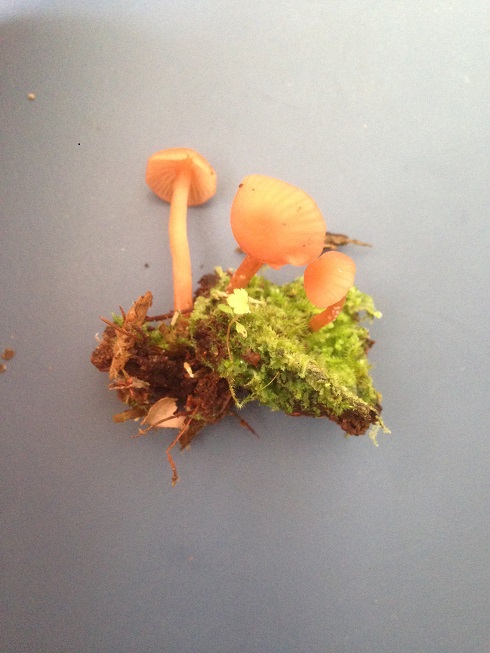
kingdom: Fungi
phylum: Basidiomycota
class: Agaricomycetes
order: Agaricales
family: Hydnangiaceae
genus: Laccaria
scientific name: Laccaria laccata
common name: rød ametysthat
